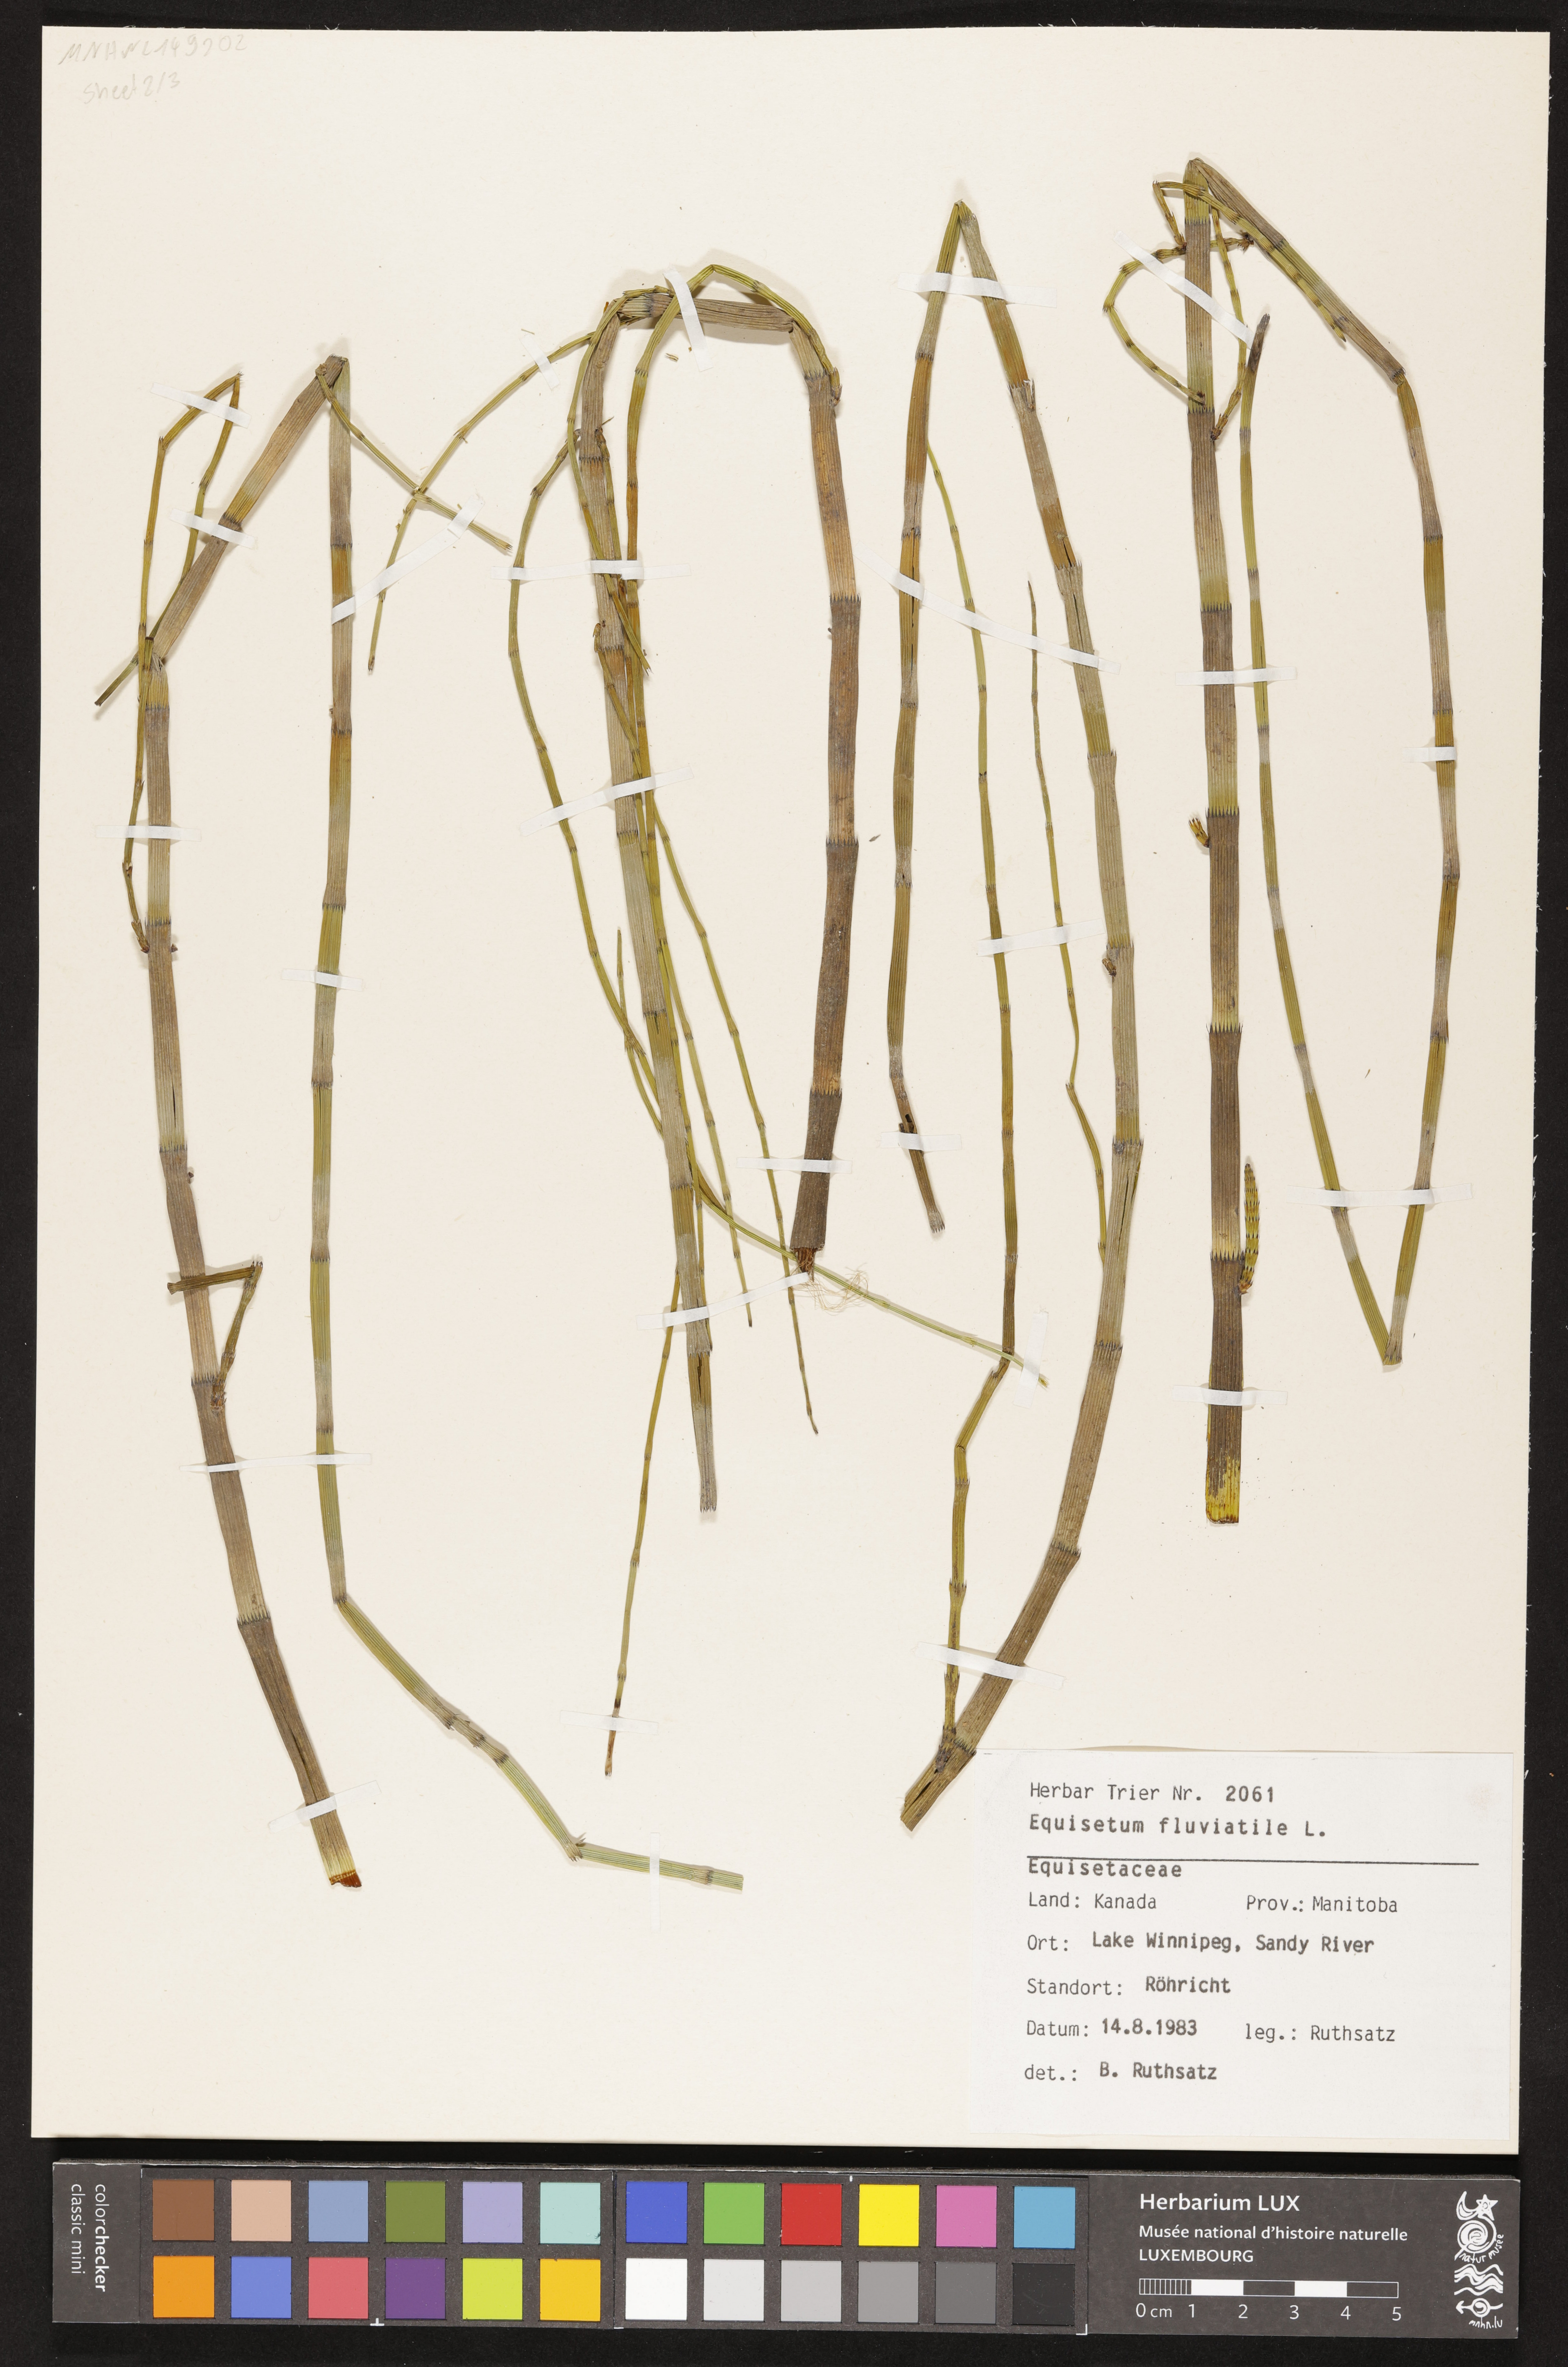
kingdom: Plantae
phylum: Tracheophyta
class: Polypodiopsida
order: Equisetales
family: Equisetaceae
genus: Equisetum
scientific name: Equisetum fluviatile
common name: Water horsetail
